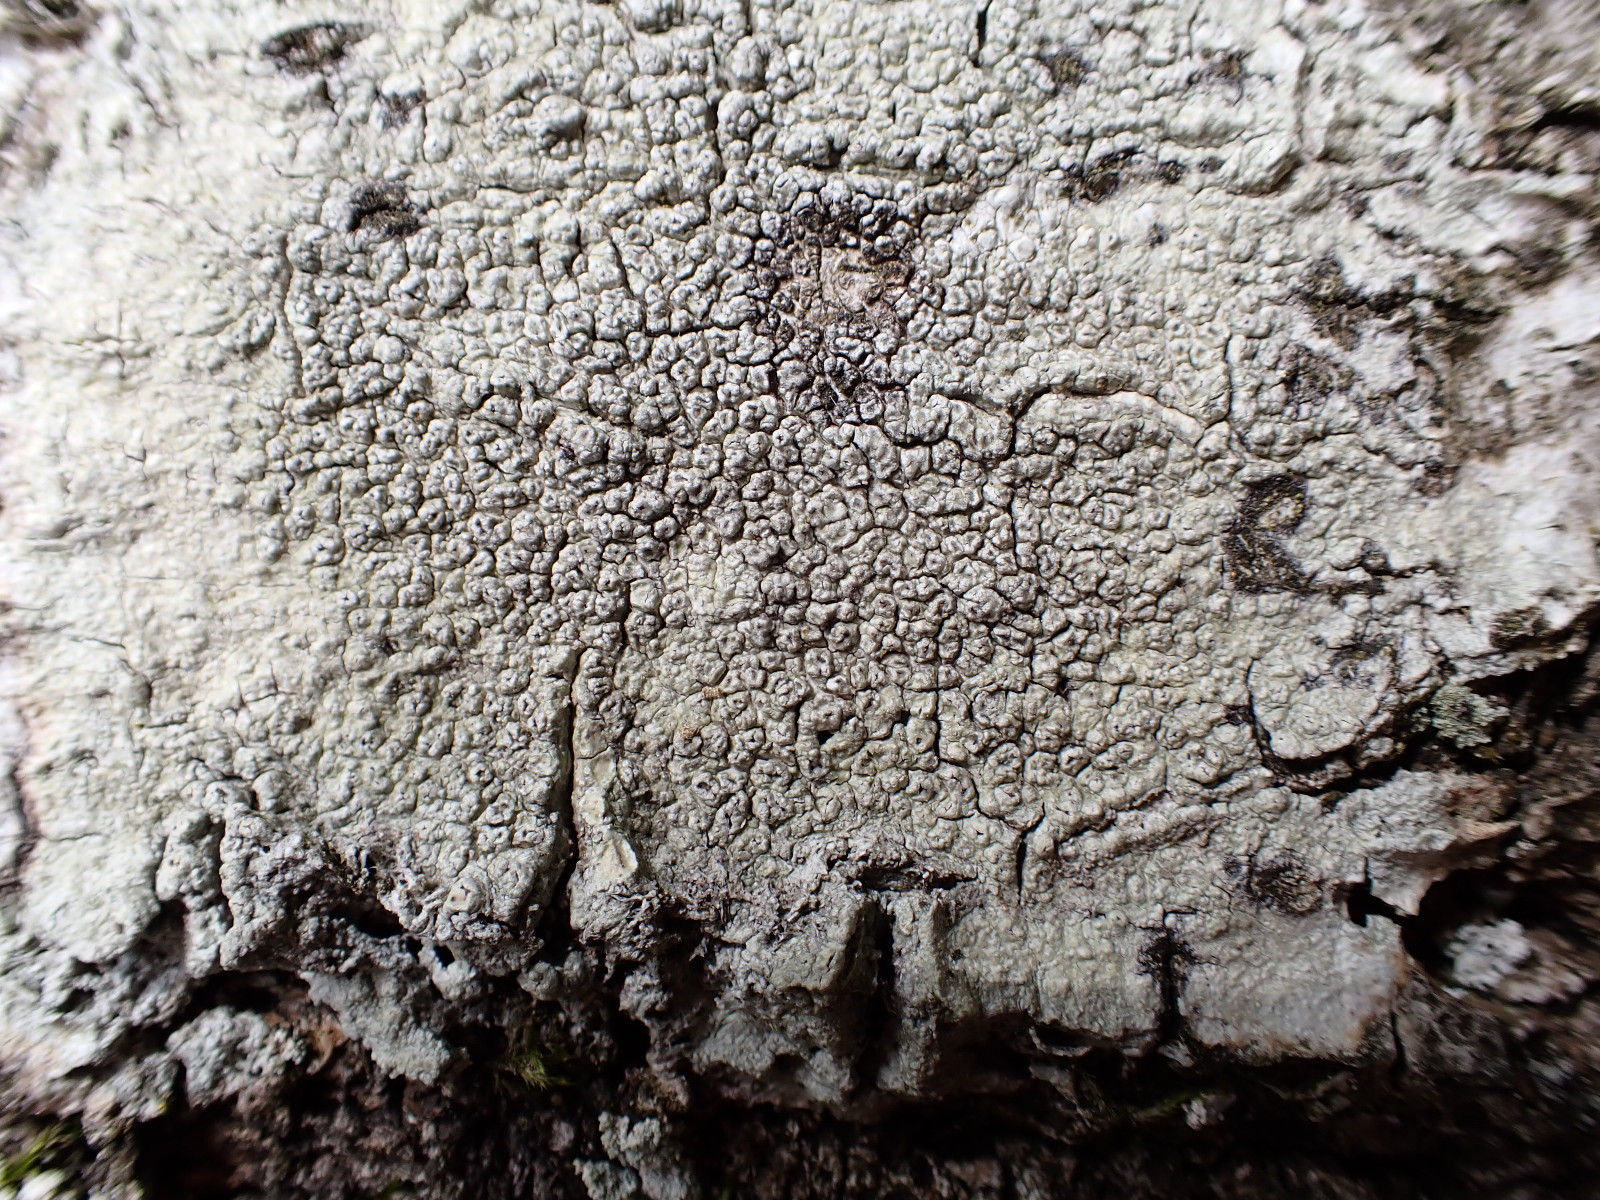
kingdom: Fungi
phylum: Ascomycota
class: Lecanoromycetes
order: Pertusariales
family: Pertusariaceae
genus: Pertusaria
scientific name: Pertusaria hymenea
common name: åben prikvortelav
